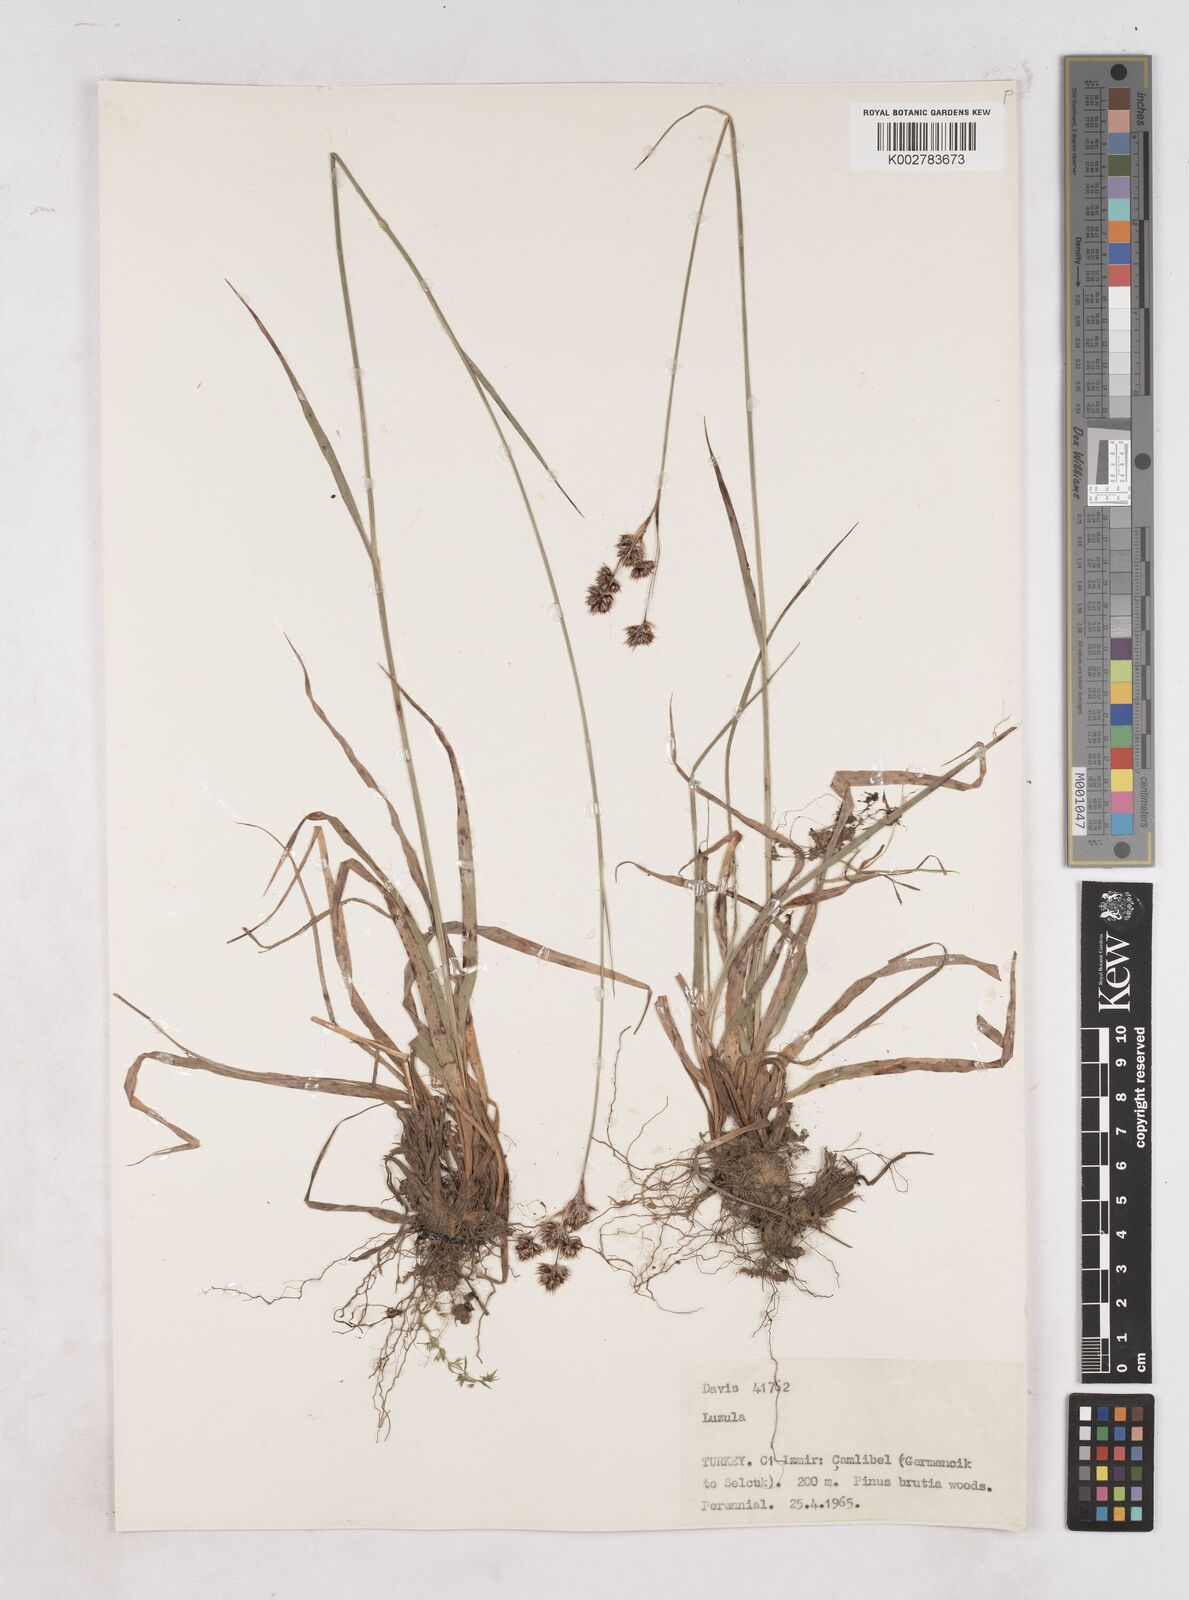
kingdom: Plantae
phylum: Tracheophyta
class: Liliopsida
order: Poales
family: Juncaceae
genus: Luzula
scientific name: Luzula
